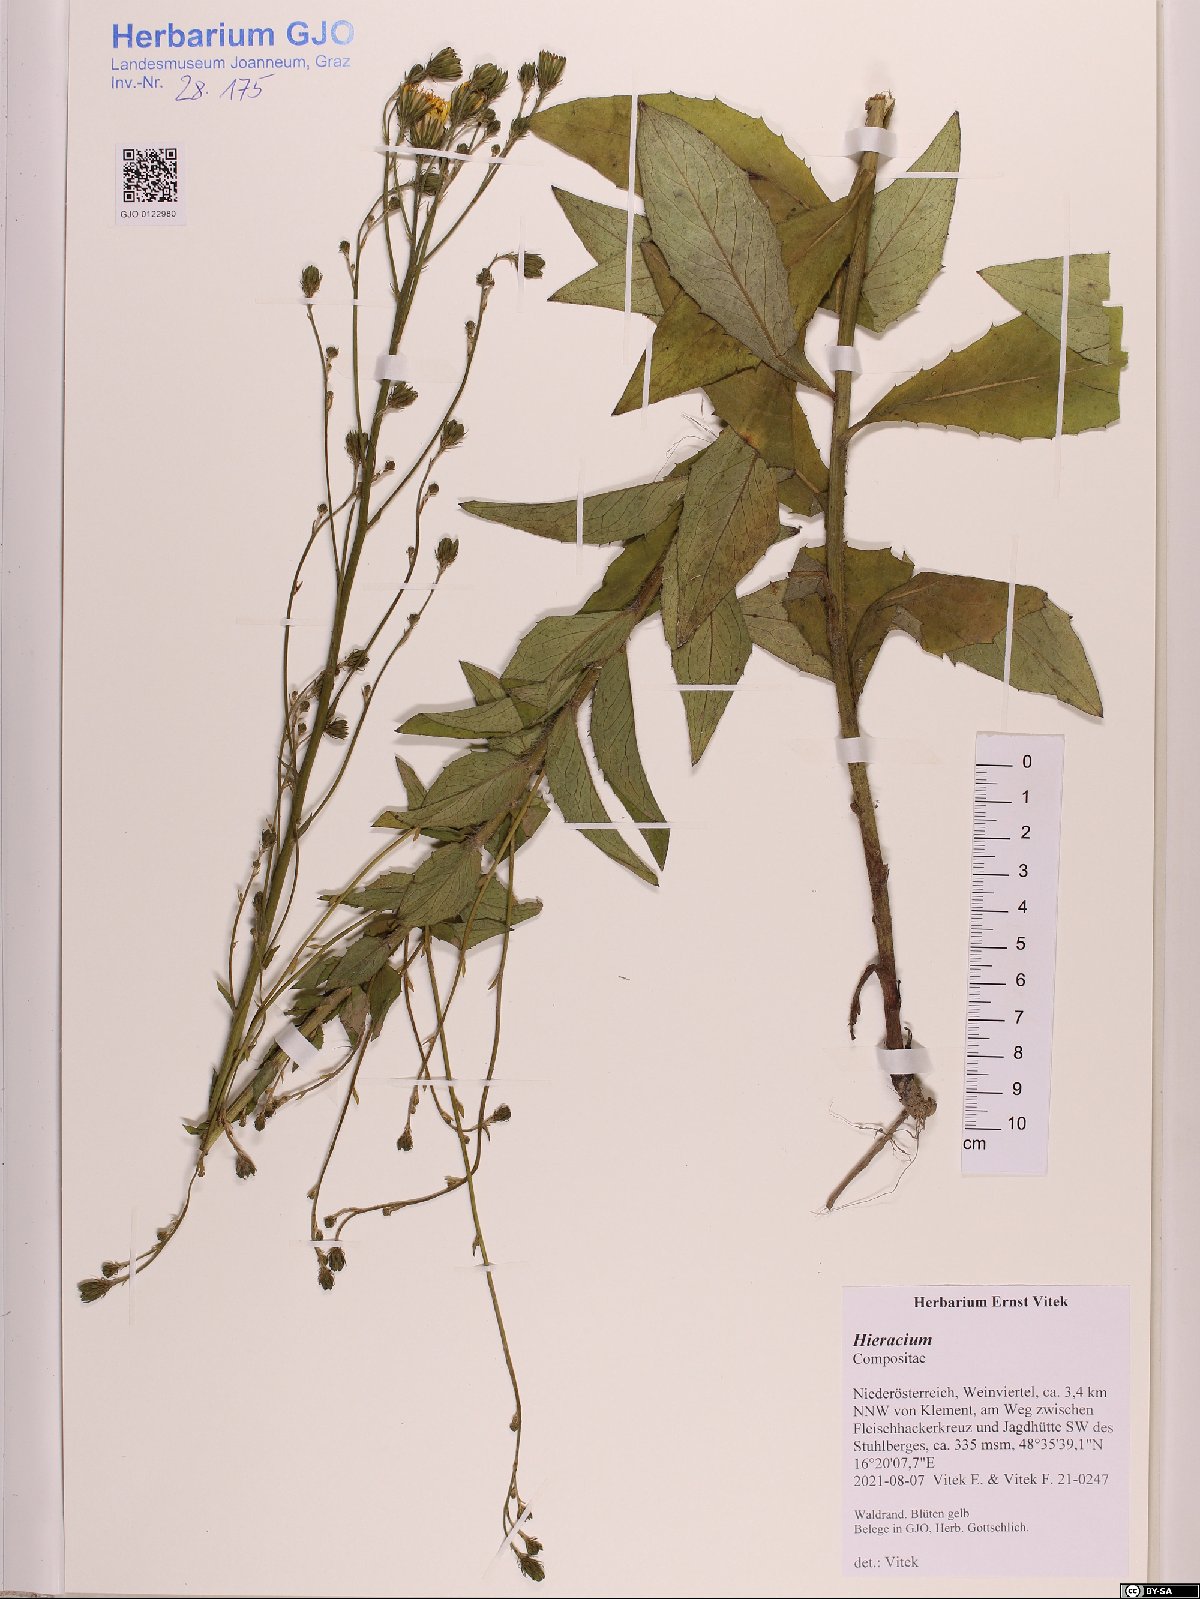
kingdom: Plantae
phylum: Tracheophyta
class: Magnoliopsida
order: Asterales
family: Asteraceae
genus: Hieracium
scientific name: Hieracium
